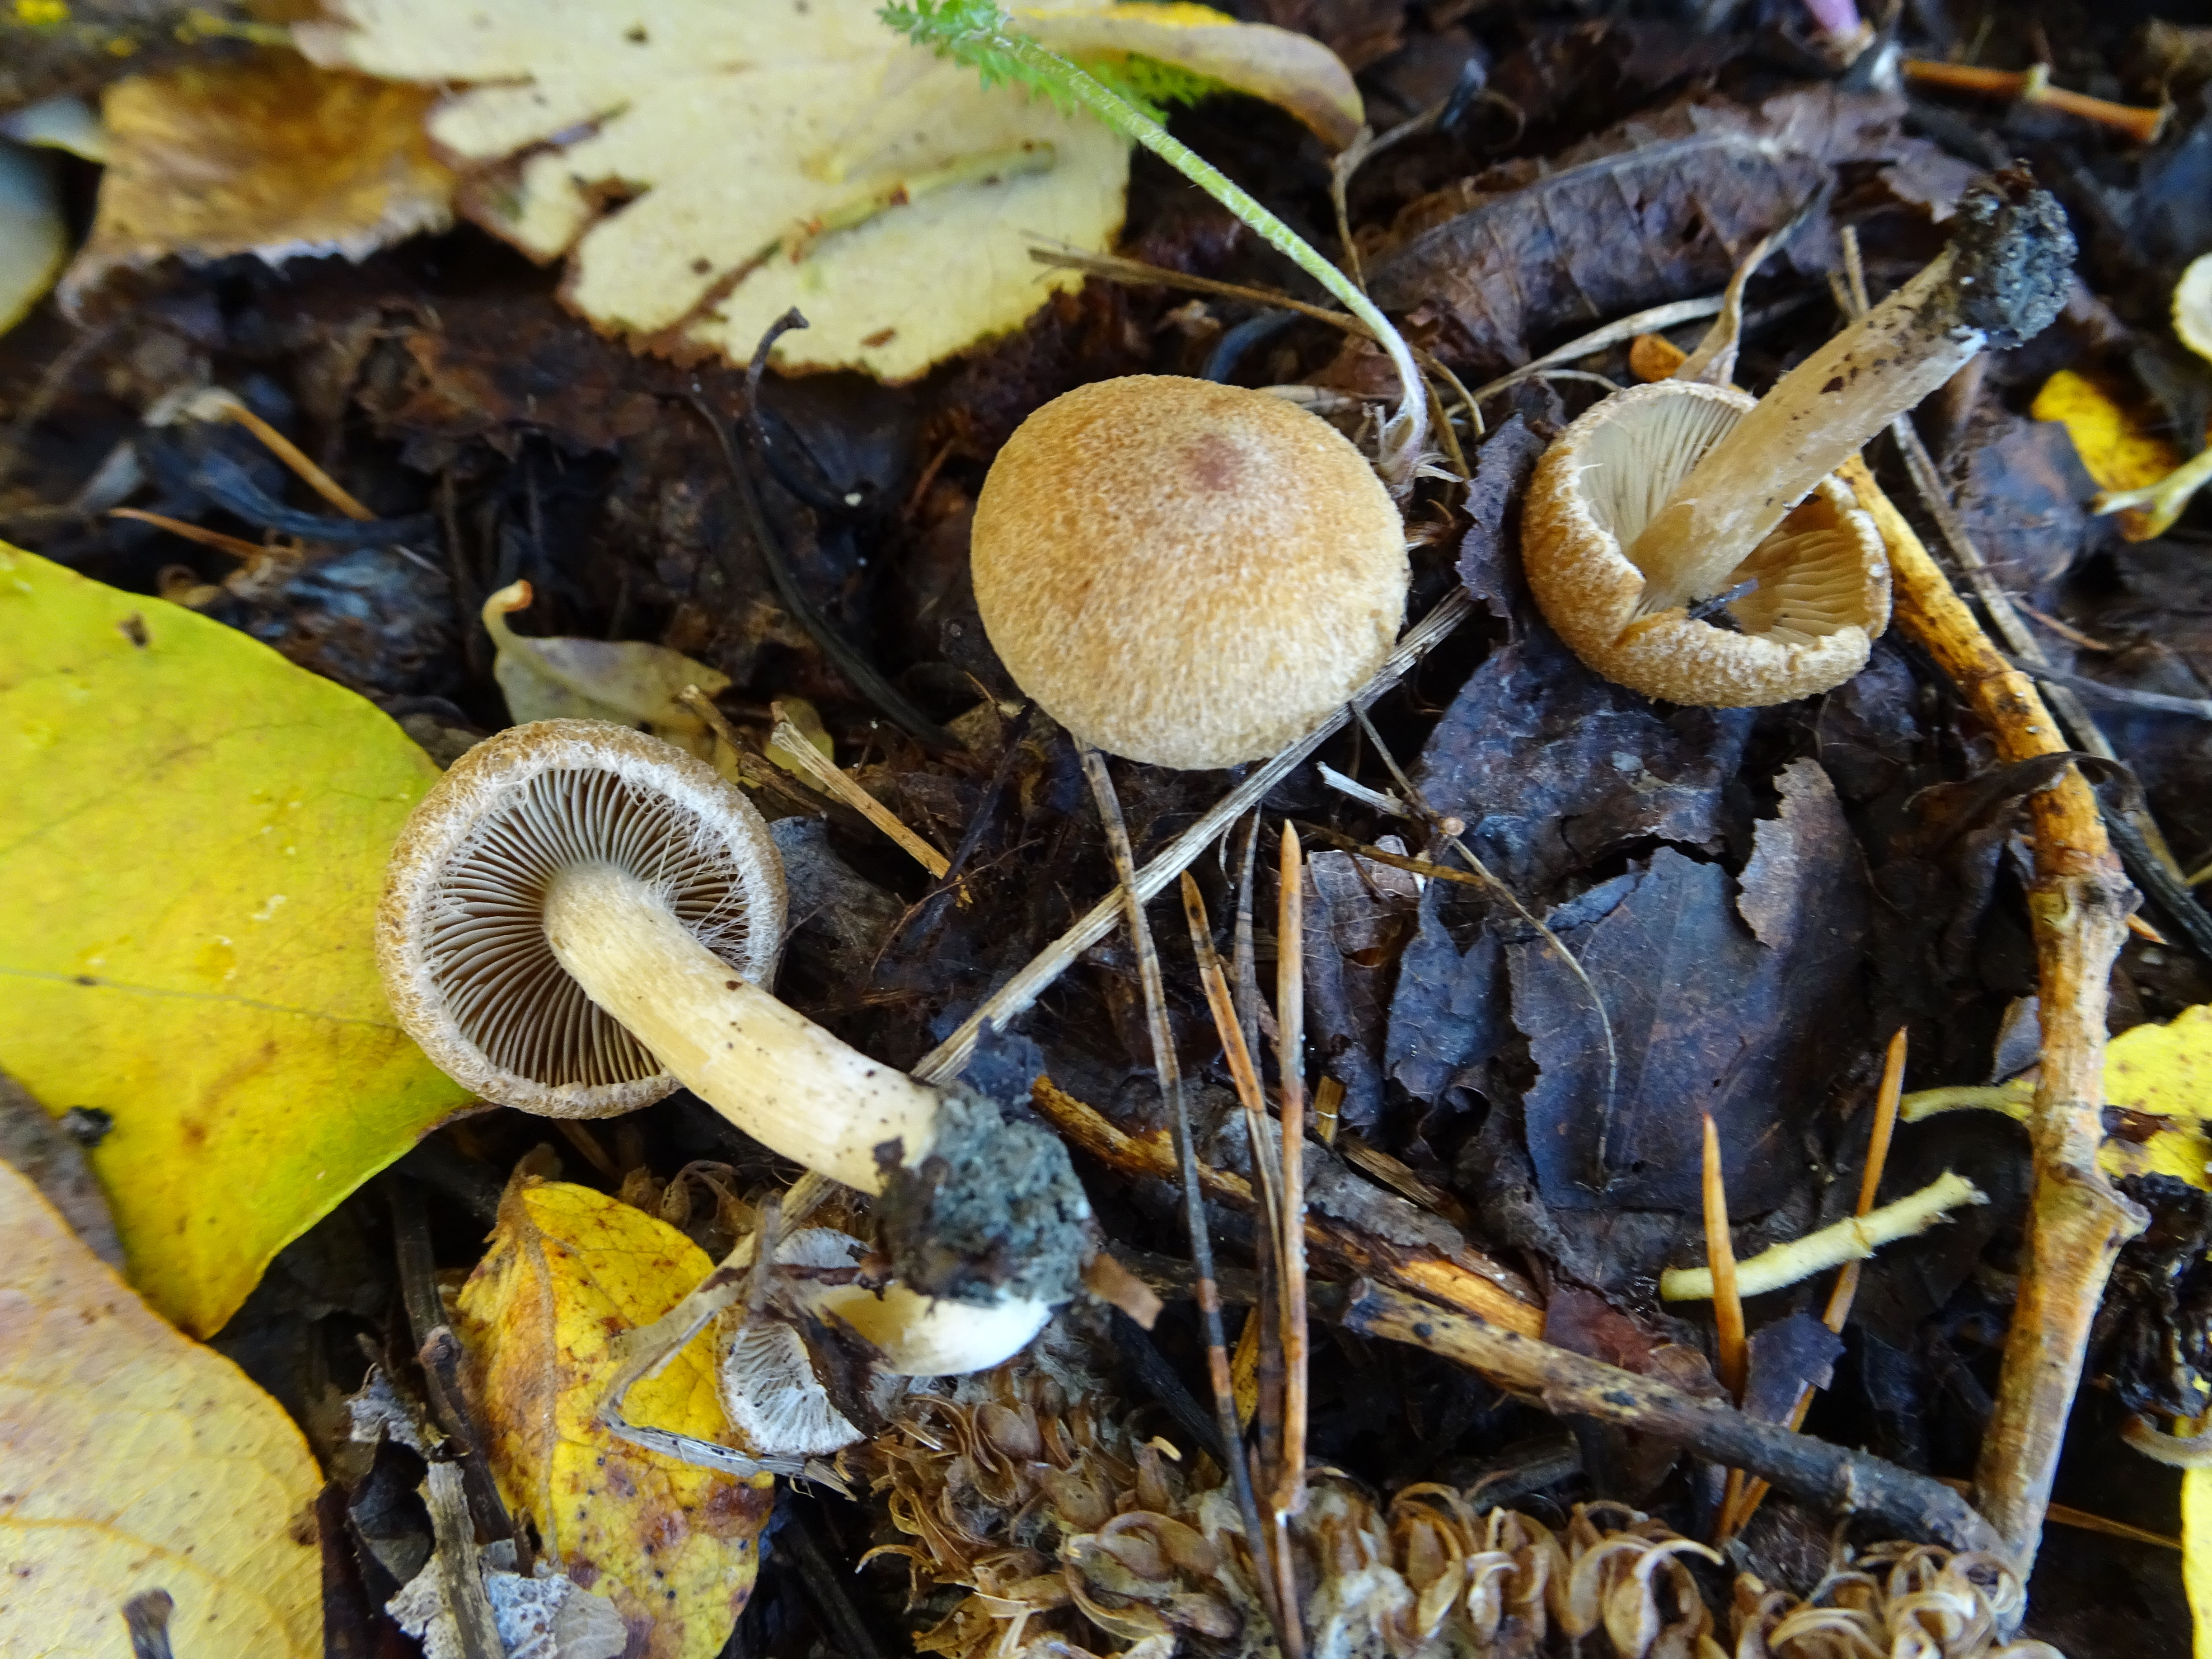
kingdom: Fungi
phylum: Basidiomycota
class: Agaricomycetes
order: Agaricales
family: Inocybaceae
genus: Inocybe
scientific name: Inocybe
